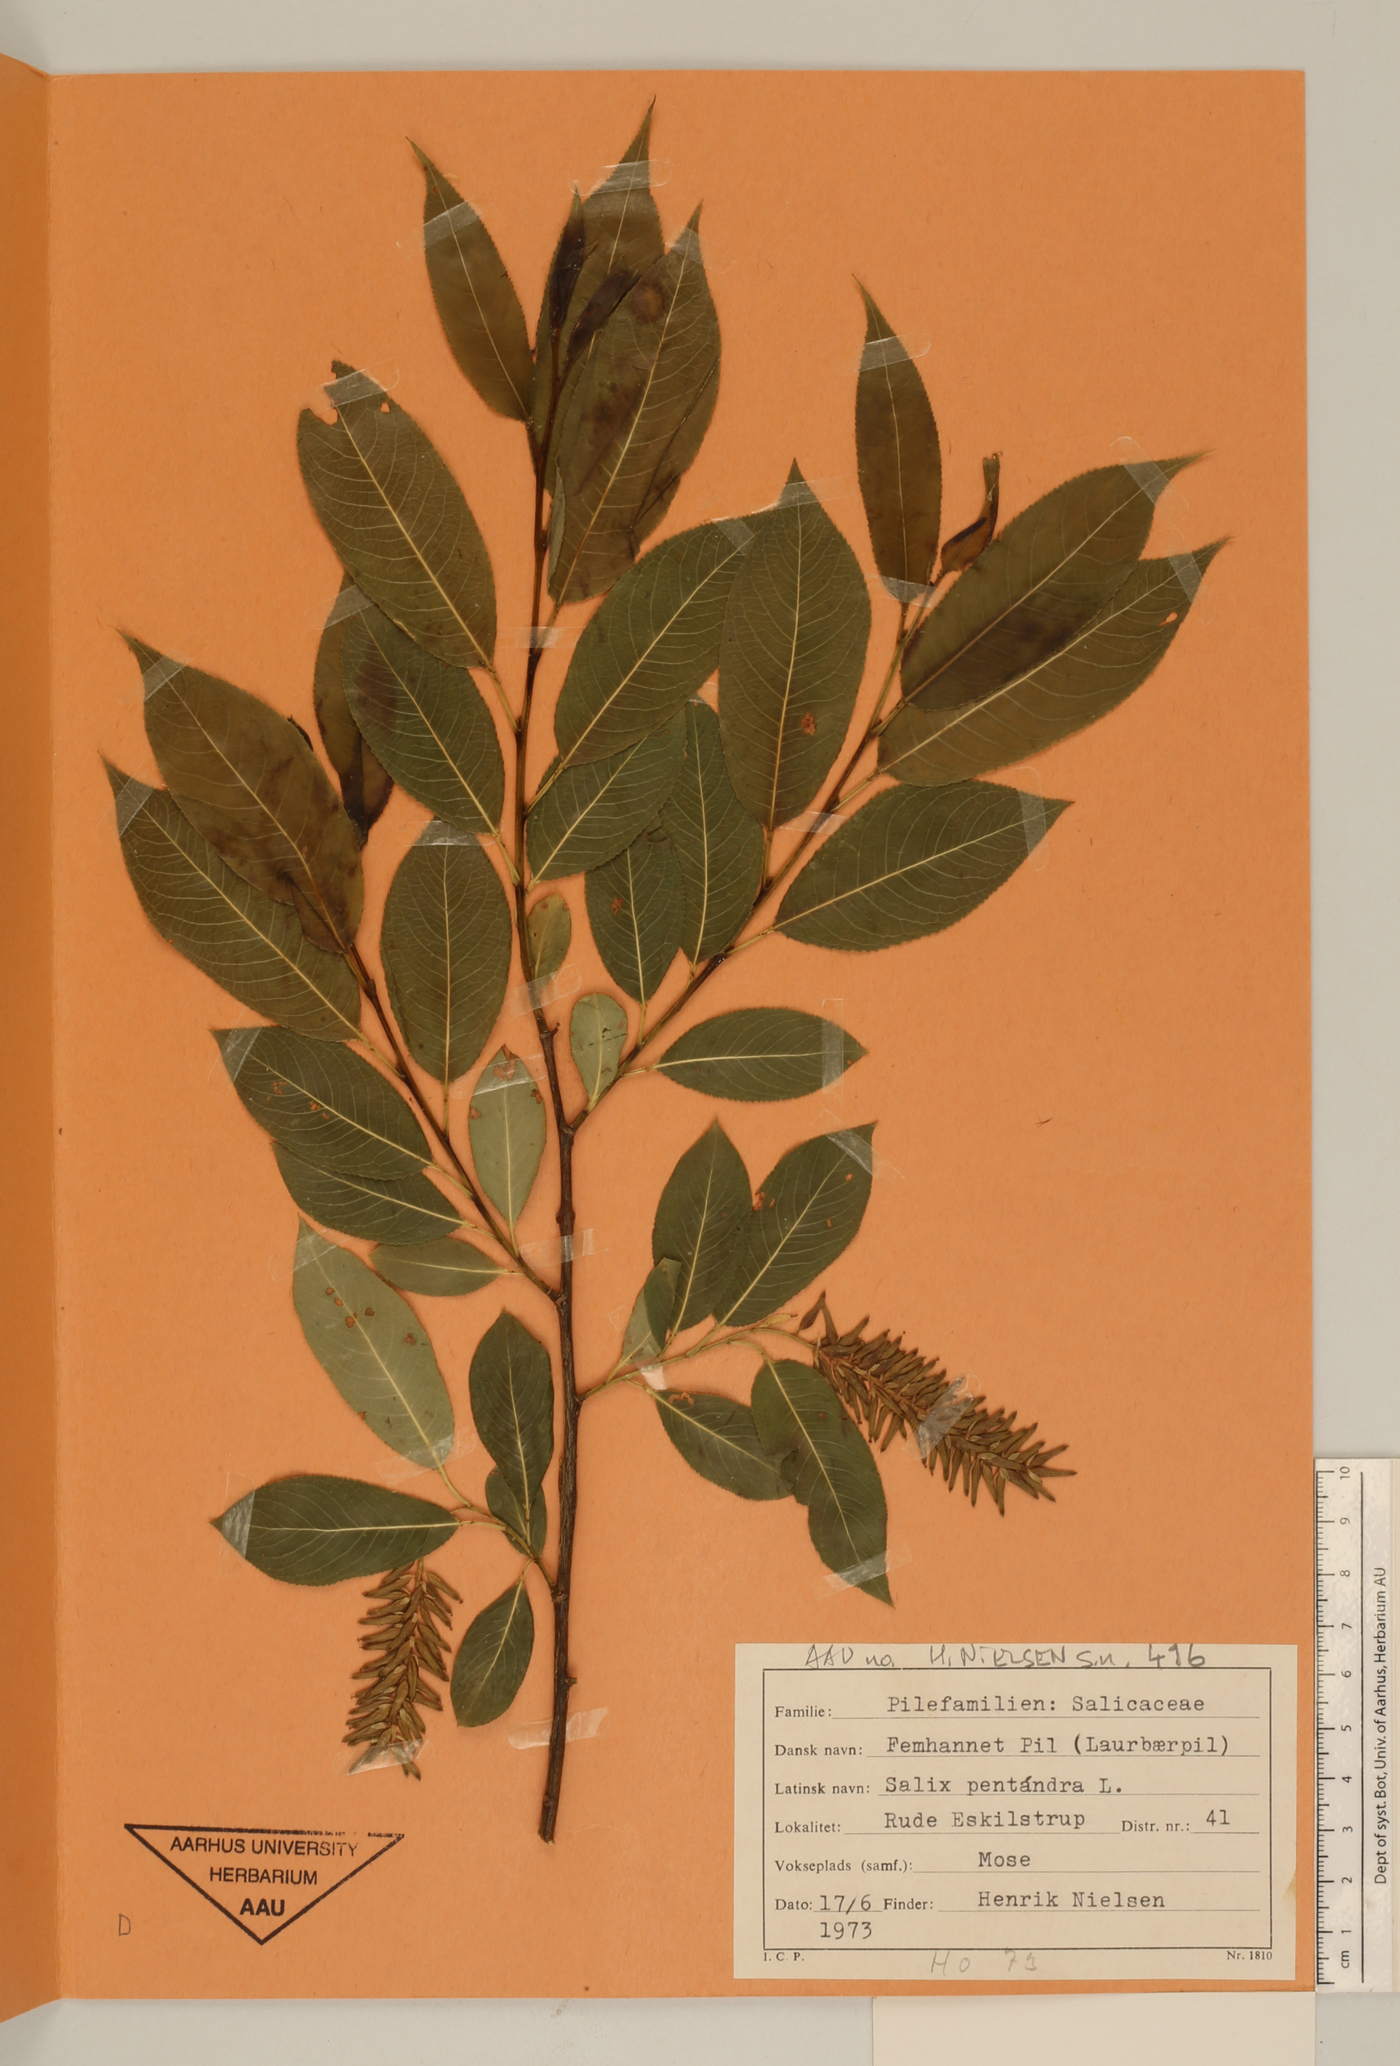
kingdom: Plantae
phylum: Tracheophyta
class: Magnoliopsida
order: Malpighiales
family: Salicaceae
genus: Salix
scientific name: Salix pentandra
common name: Bay willow
